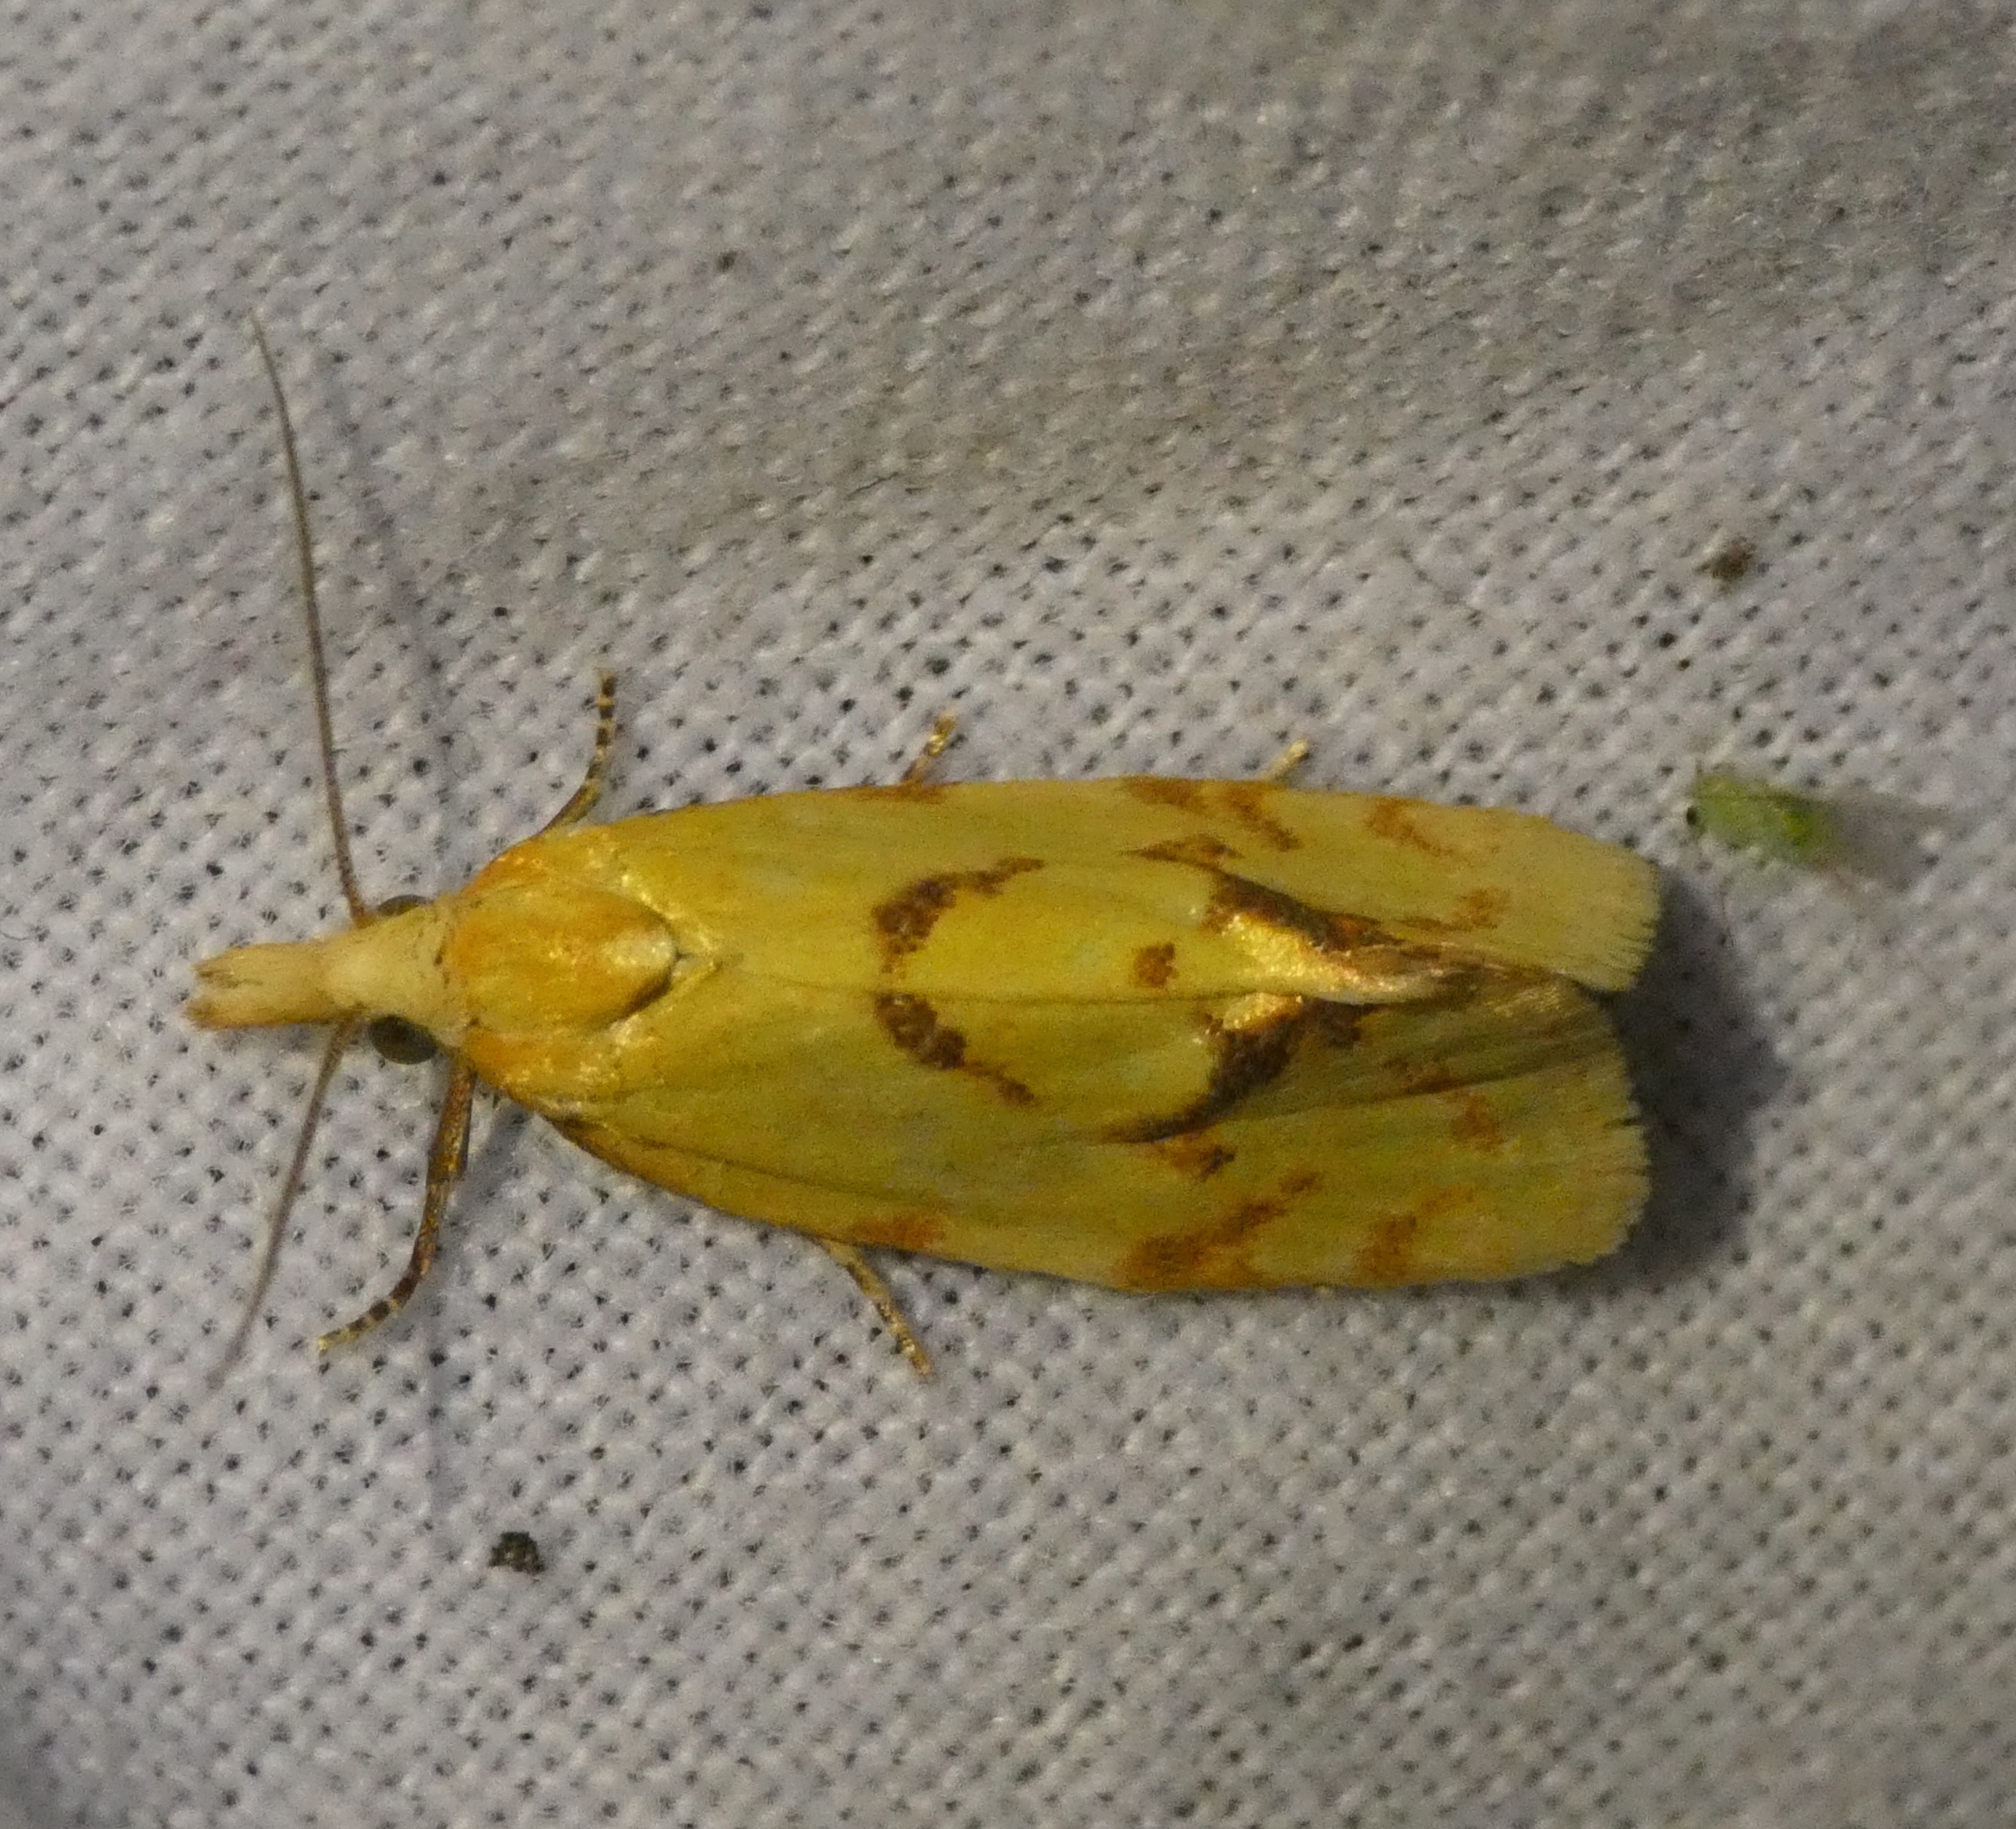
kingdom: Animalia
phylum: Arthropoda
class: Insecta
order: Lepidoptera
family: Tortricidae
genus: Agapeta
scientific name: Agapeta hamana
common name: Tidselgulvikler
